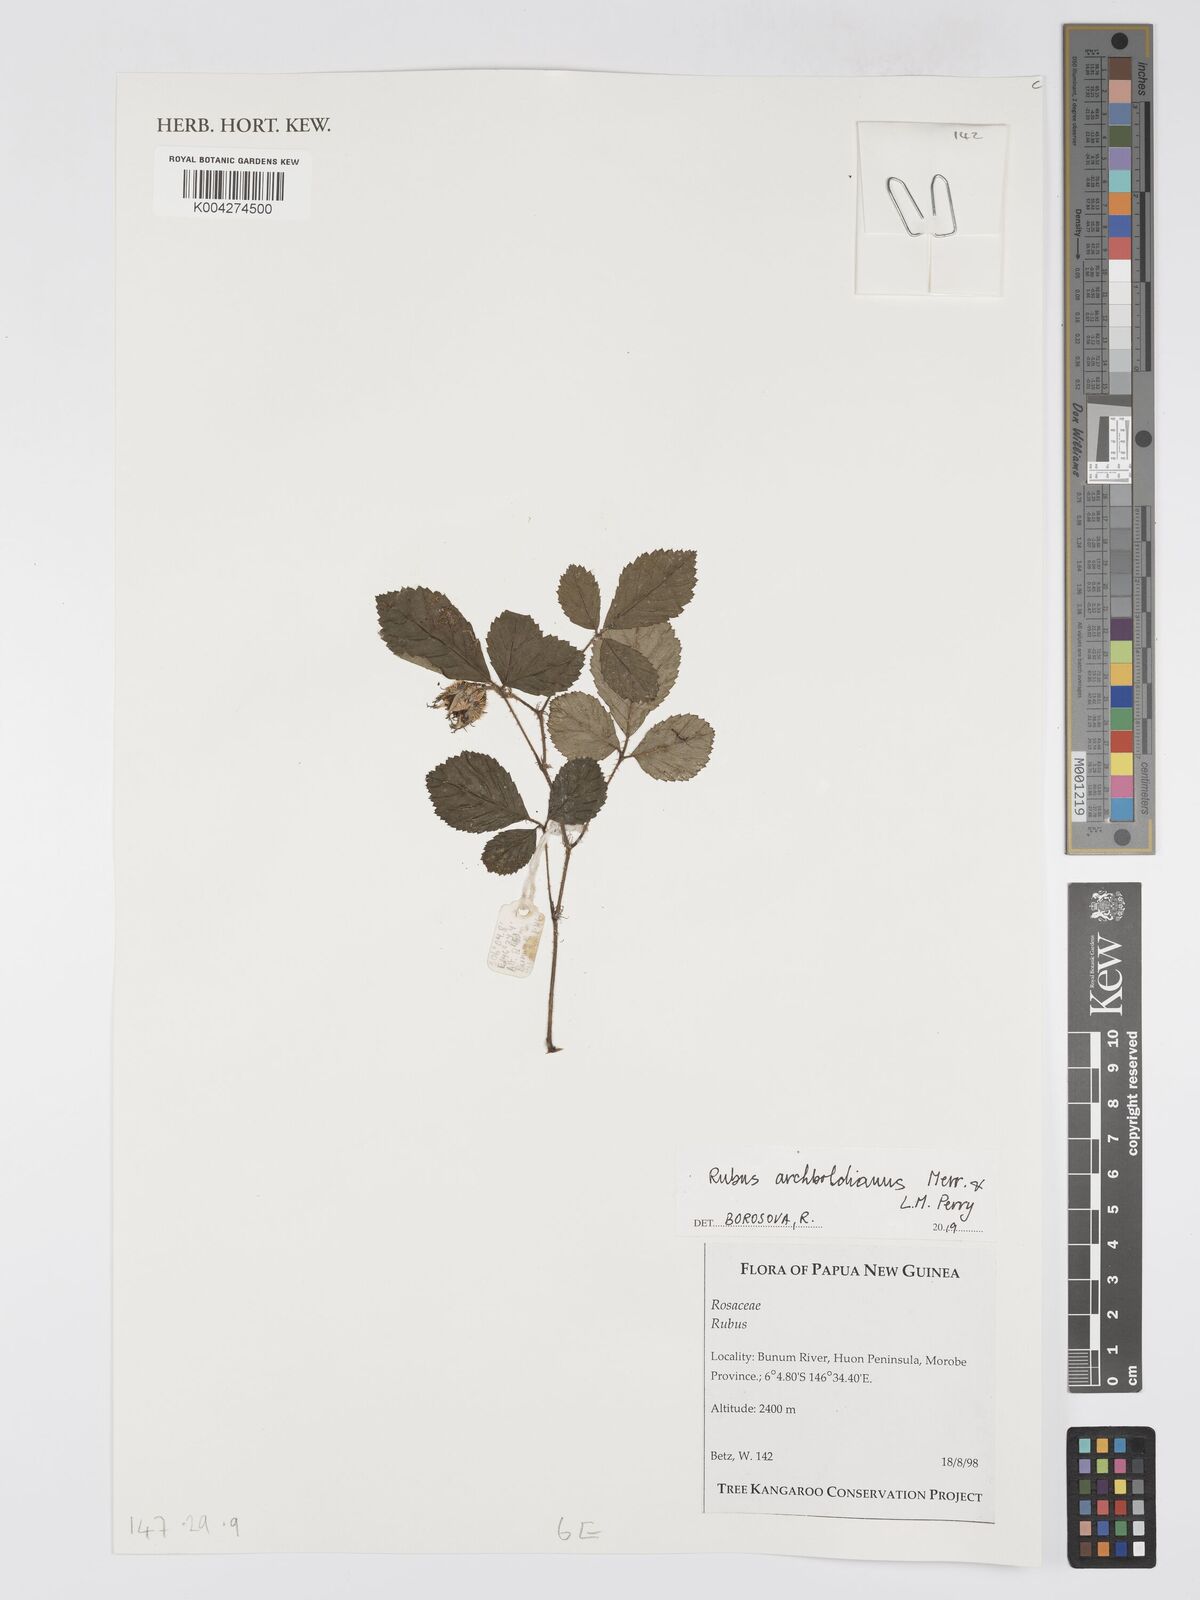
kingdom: Plantae
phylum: Tracheophyta
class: Magnoliopsida
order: Rosales
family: Rosaceae
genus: Rubus
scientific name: Rubus archboldianus
